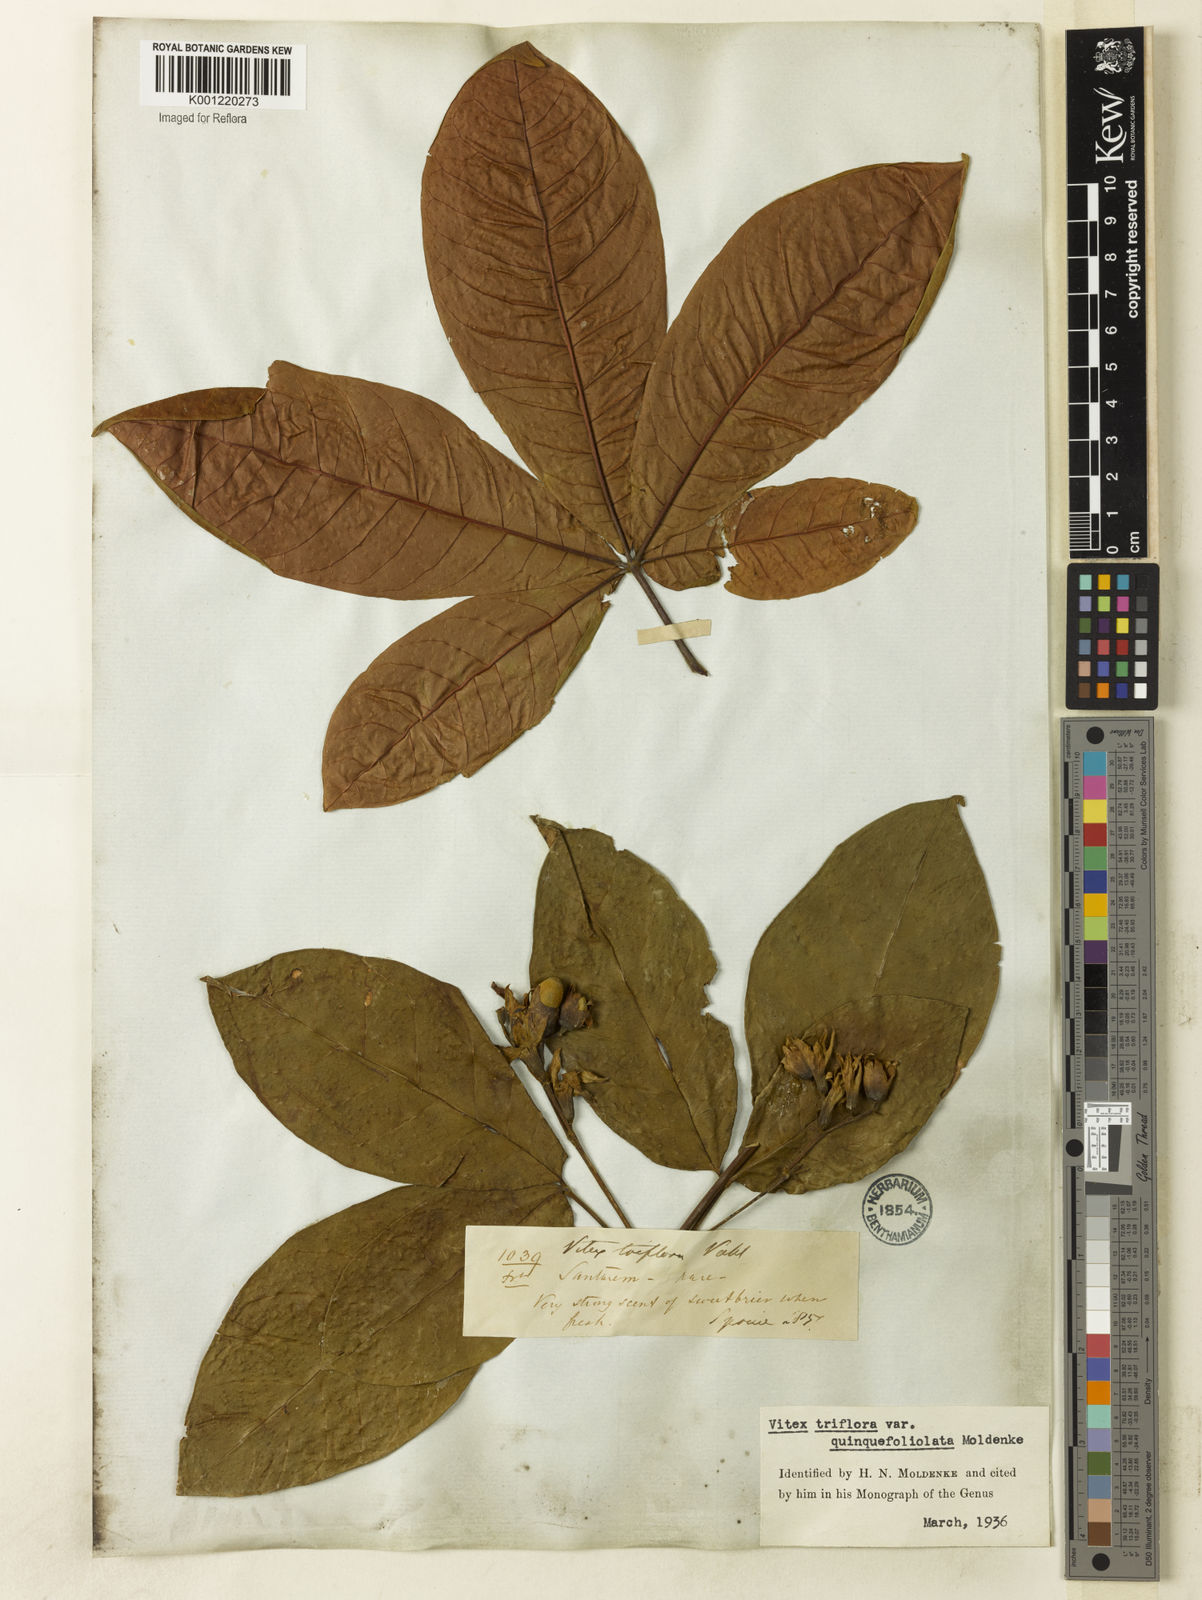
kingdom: Plantae
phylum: Tracheophyta
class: Magnoliopsida
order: Lamiales
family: Lamiaceae
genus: Vitex
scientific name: Vitex triflora
